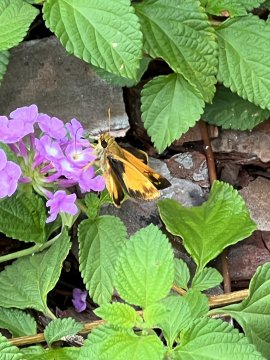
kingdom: Animalia
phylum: Arthropoda
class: Insecta
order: Lepidoptera
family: Hesperiidae
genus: Lon
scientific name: Lon zabulon
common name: Zabulon Skipper
